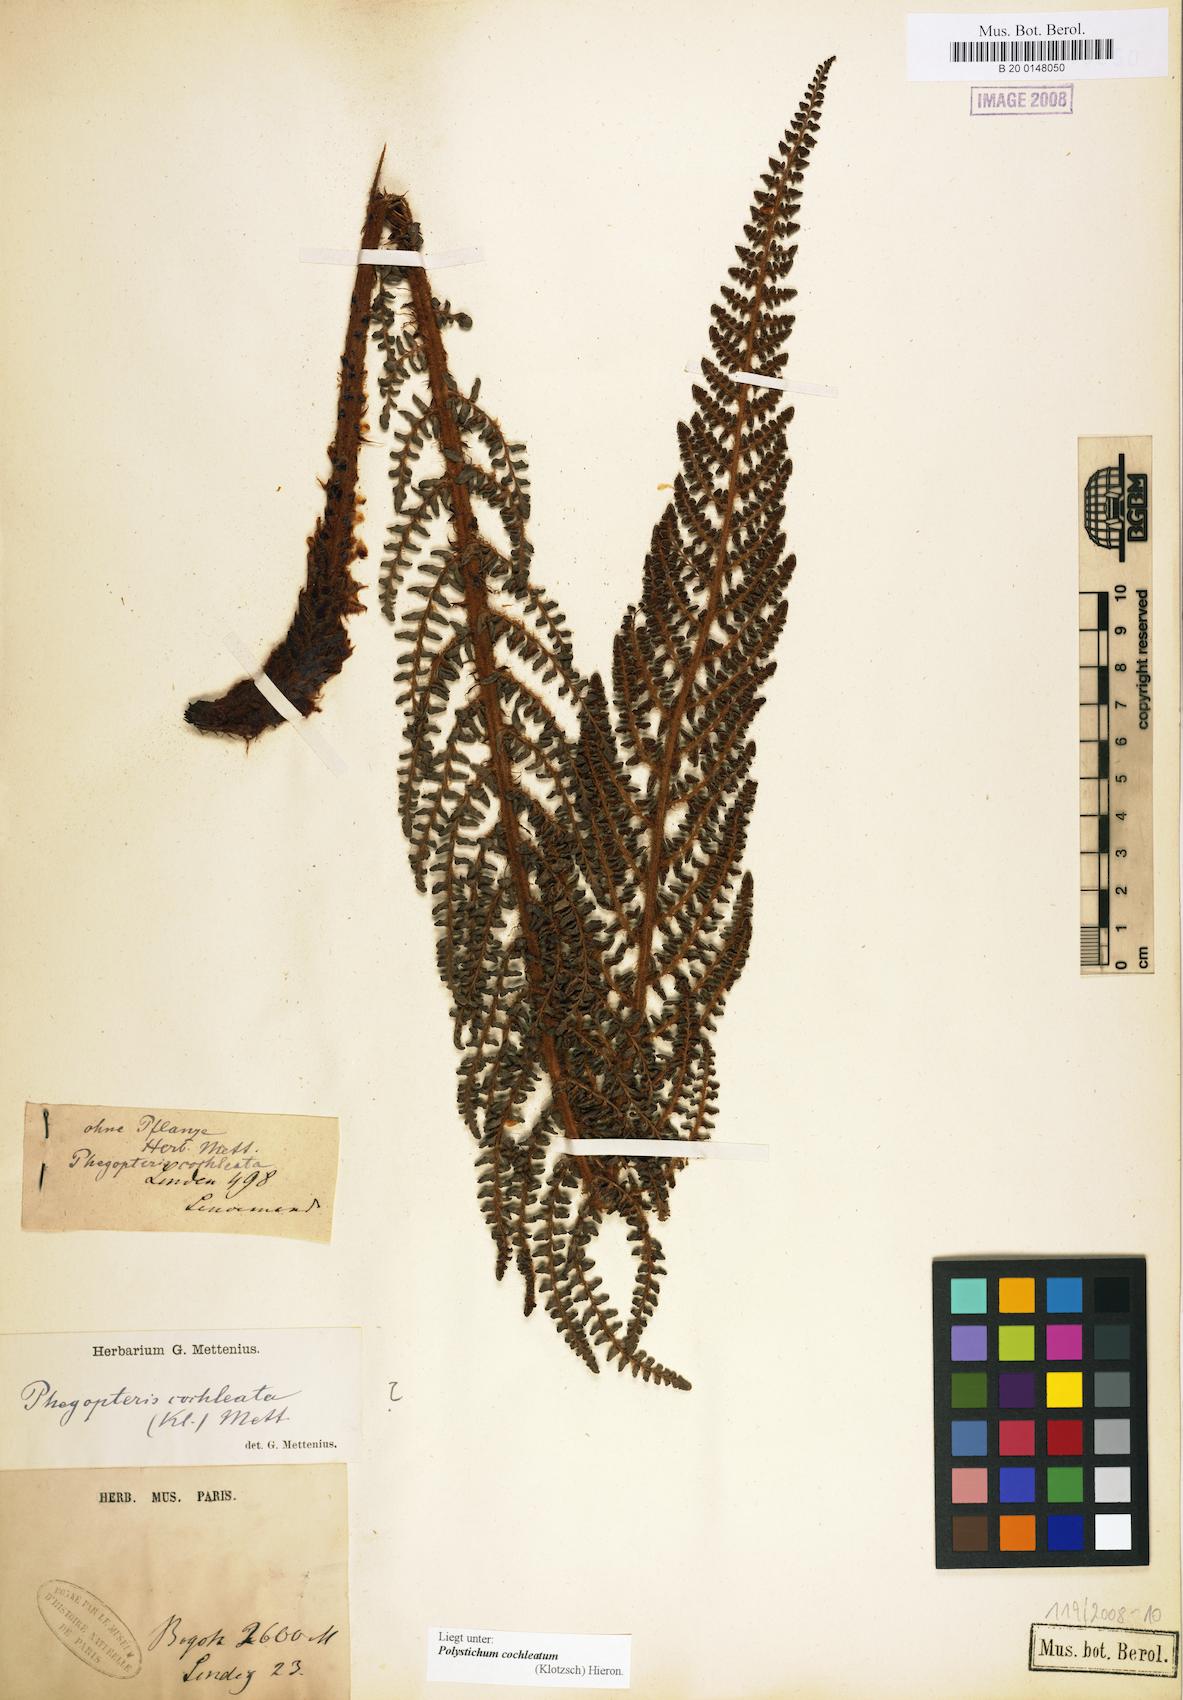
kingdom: Plantae
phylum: Tracheophyta
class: Polypodiopsida
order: Polypodiales
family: Dryopteridaceae
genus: Polystichum
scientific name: Polystichum cochleatum
